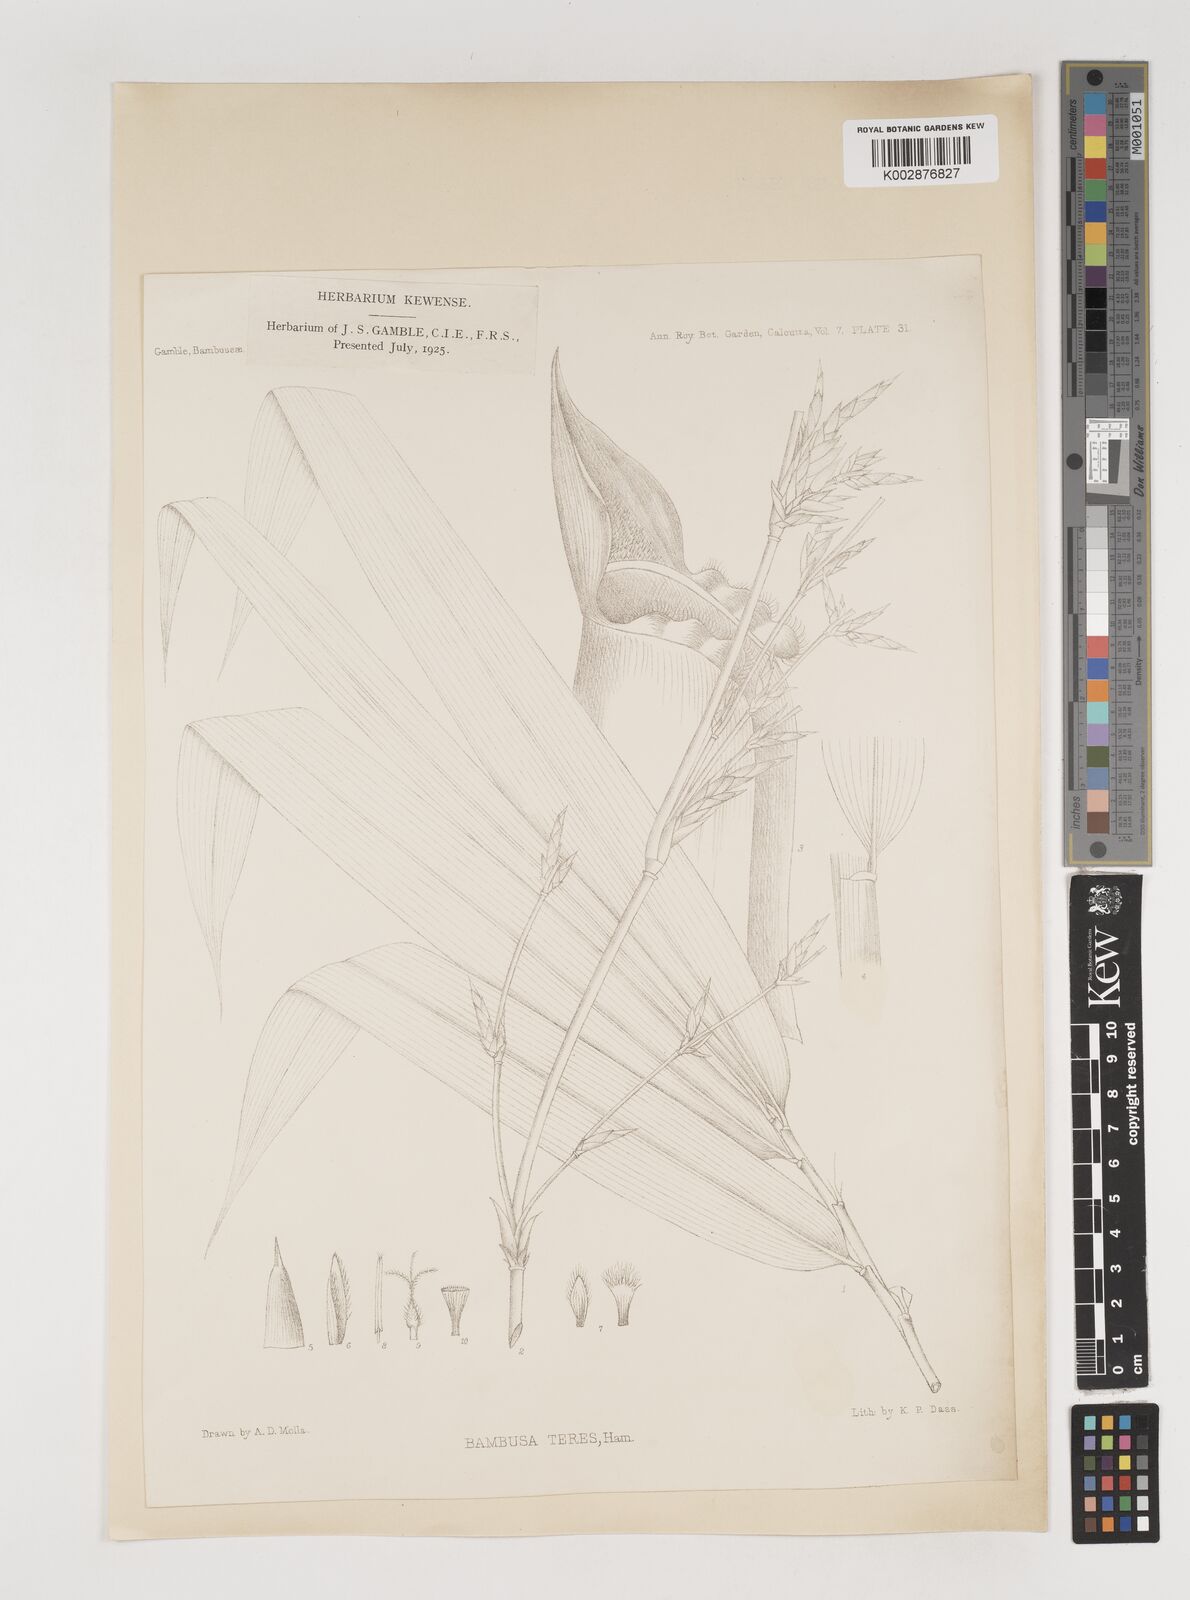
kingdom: Plantae
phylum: Tracheophyta
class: Liliopsida
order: Poales
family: Poaceae
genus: Bambusa
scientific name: Bambusa teres
